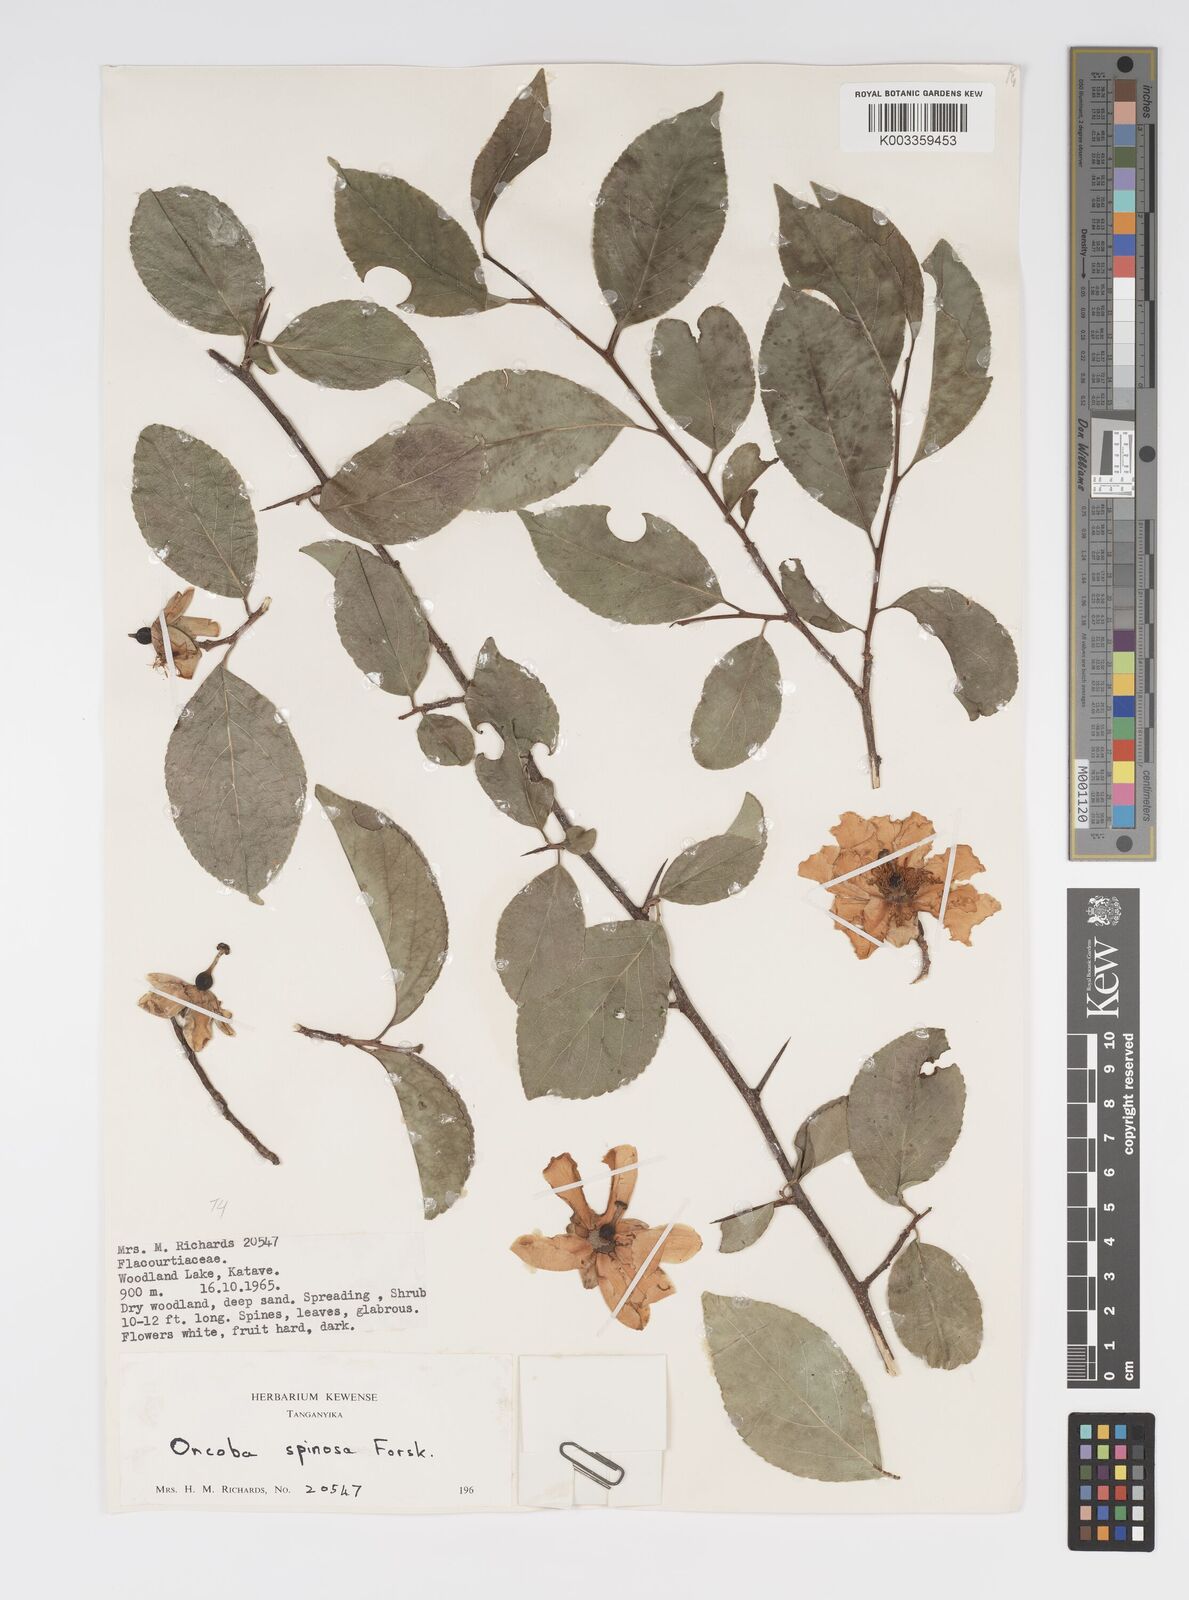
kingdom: Plantae
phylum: Tracheophyta
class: Magnoliopsida
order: Malpighiales
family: Salicaceae
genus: Oncoba
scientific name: Oncoba spinosa
